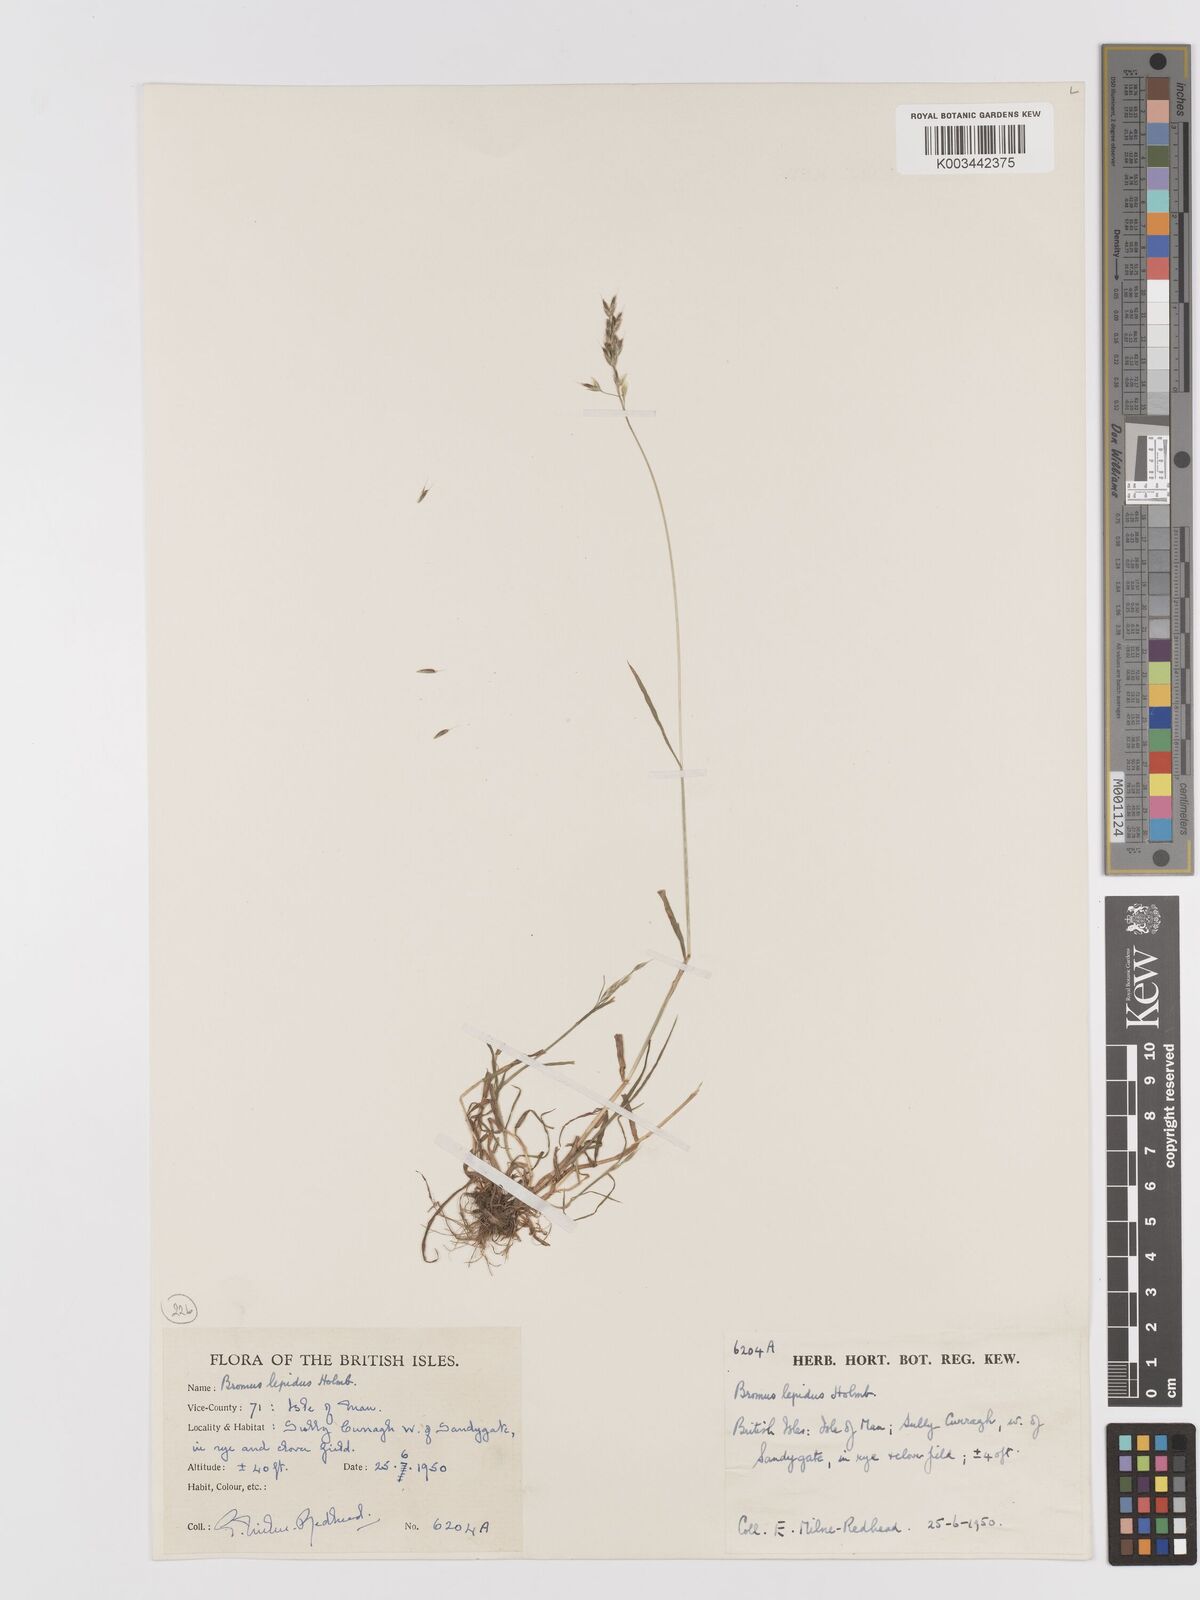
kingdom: Plantae
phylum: Tracheophyta
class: Liliopsida
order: Poales
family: Poaceae
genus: Bromus
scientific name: Bromus lepidus
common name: Slender soft-brome
